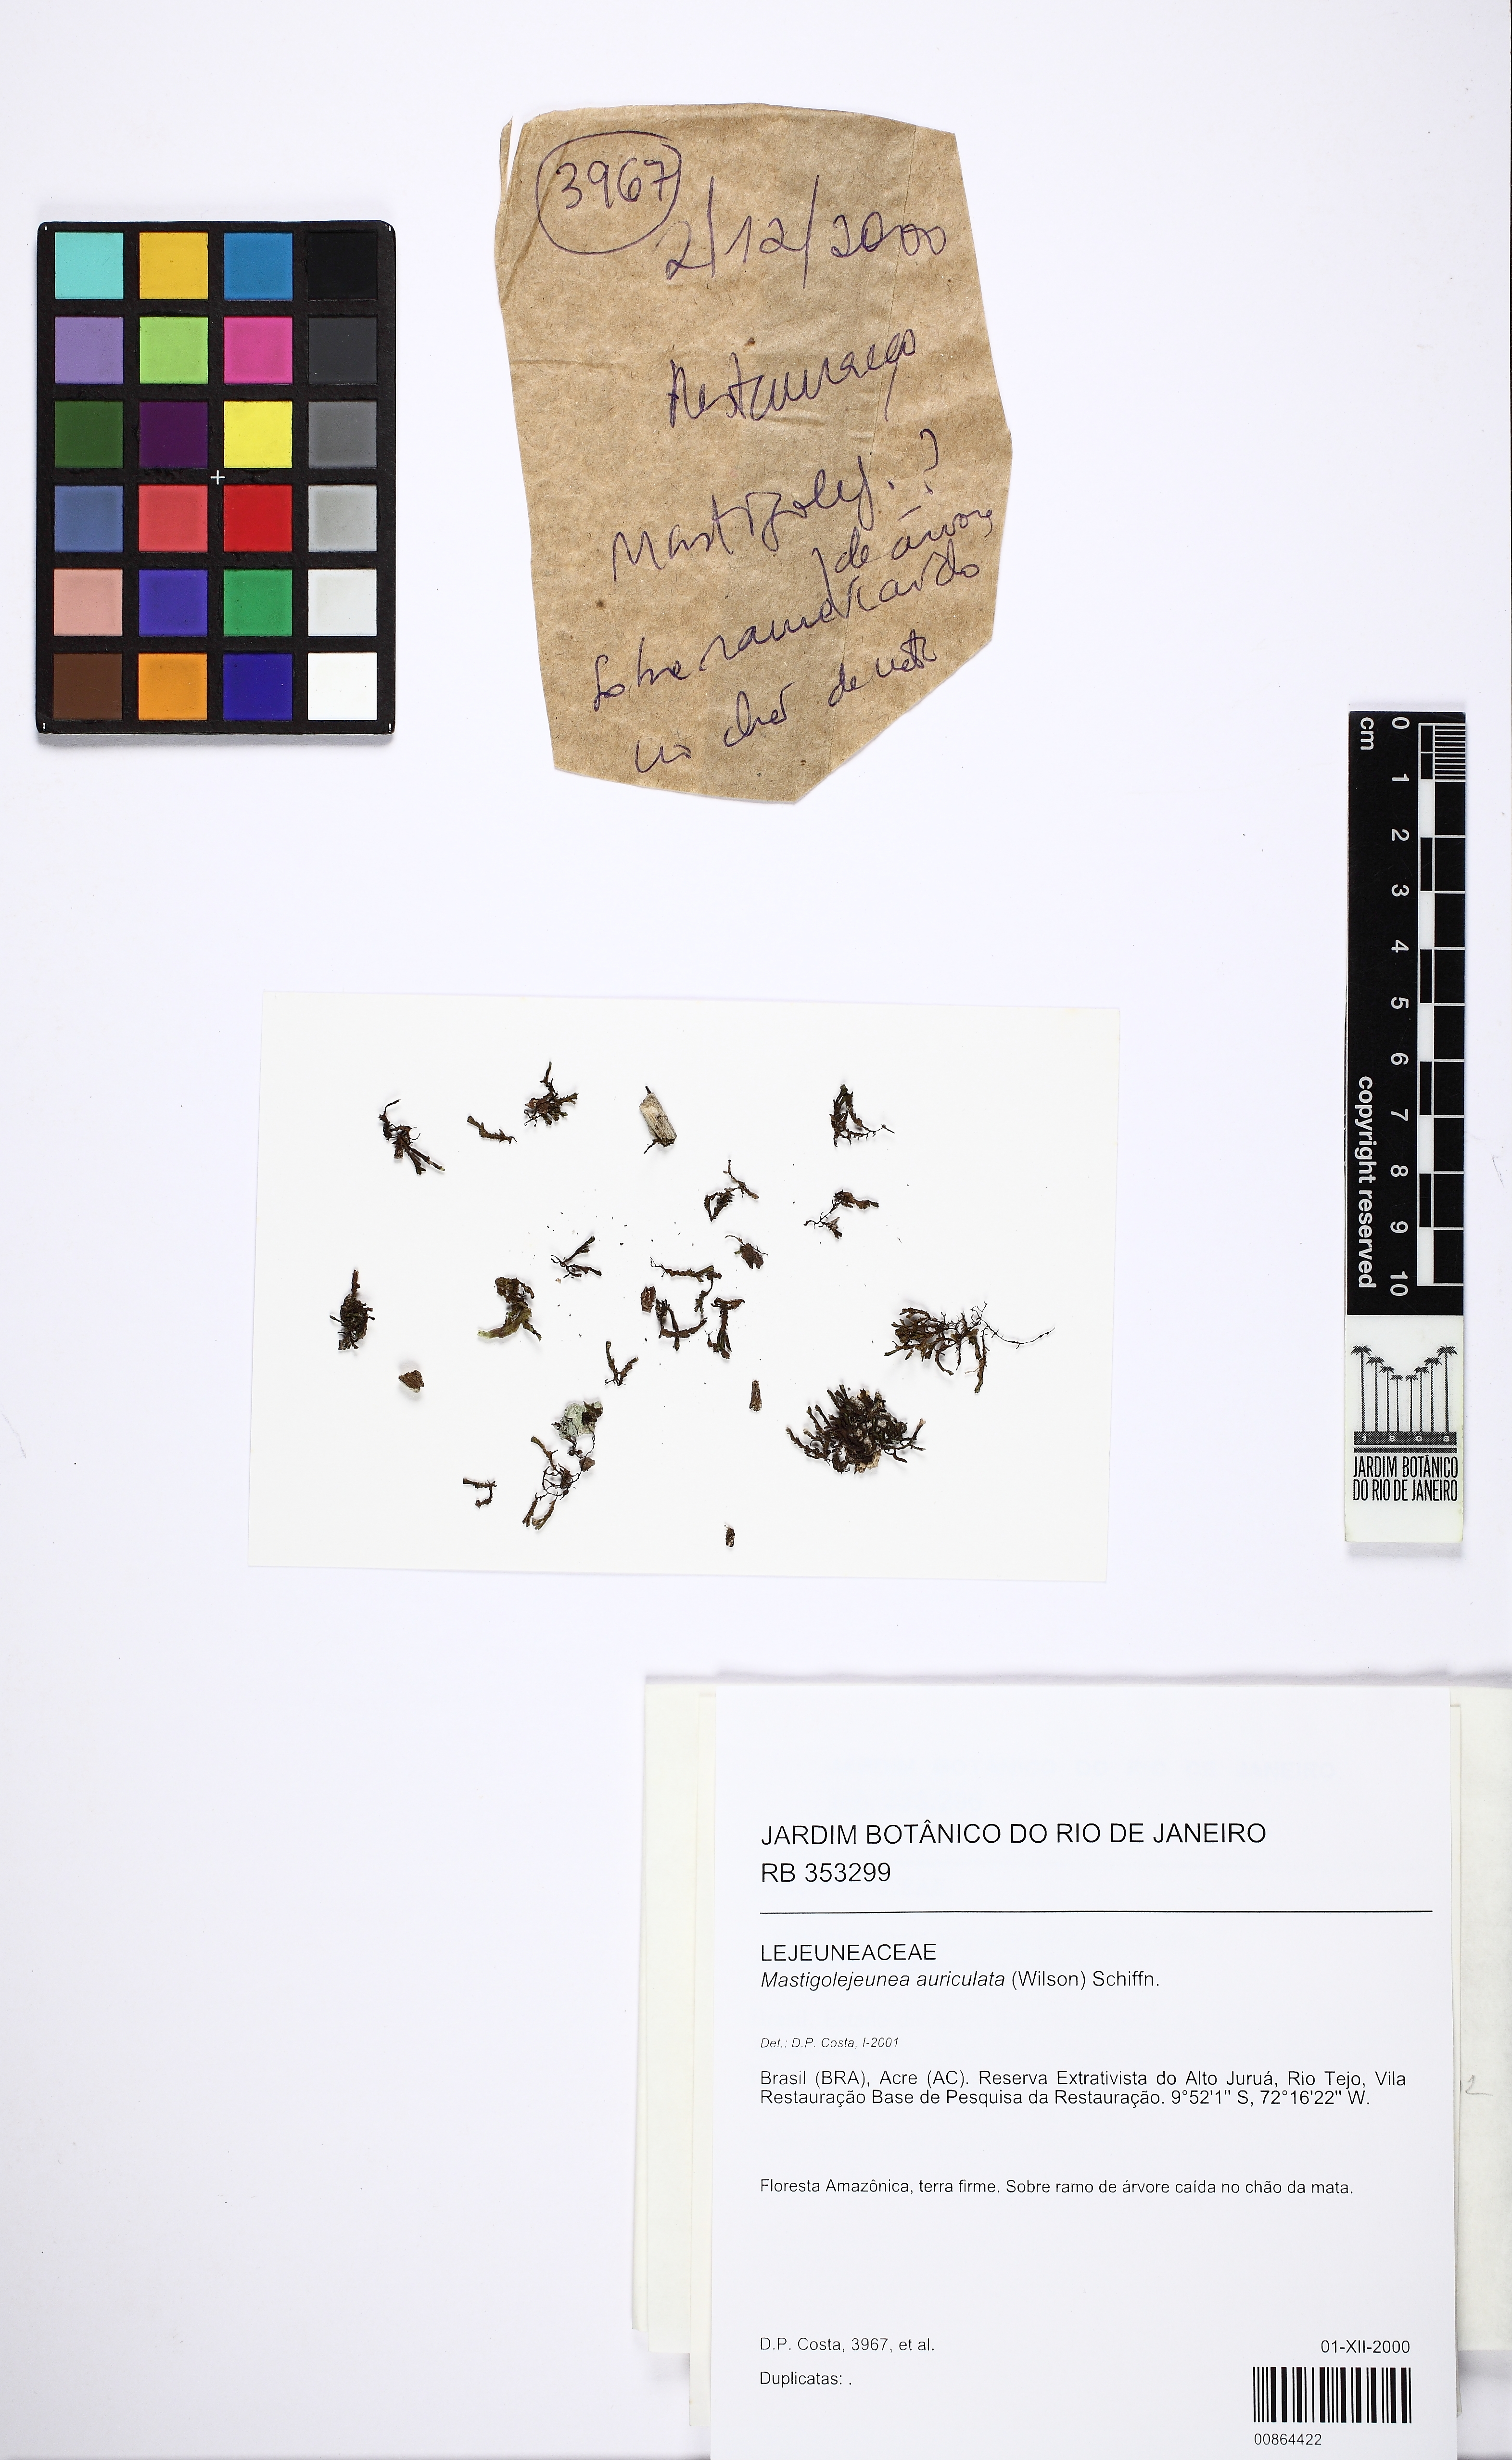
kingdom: Plantae
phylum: Marchantiophyta
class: Jungermanniopsida
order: Porellales
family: Lejeuneaceae
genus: Thysananthus
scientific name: Thysananthus auriculatus
